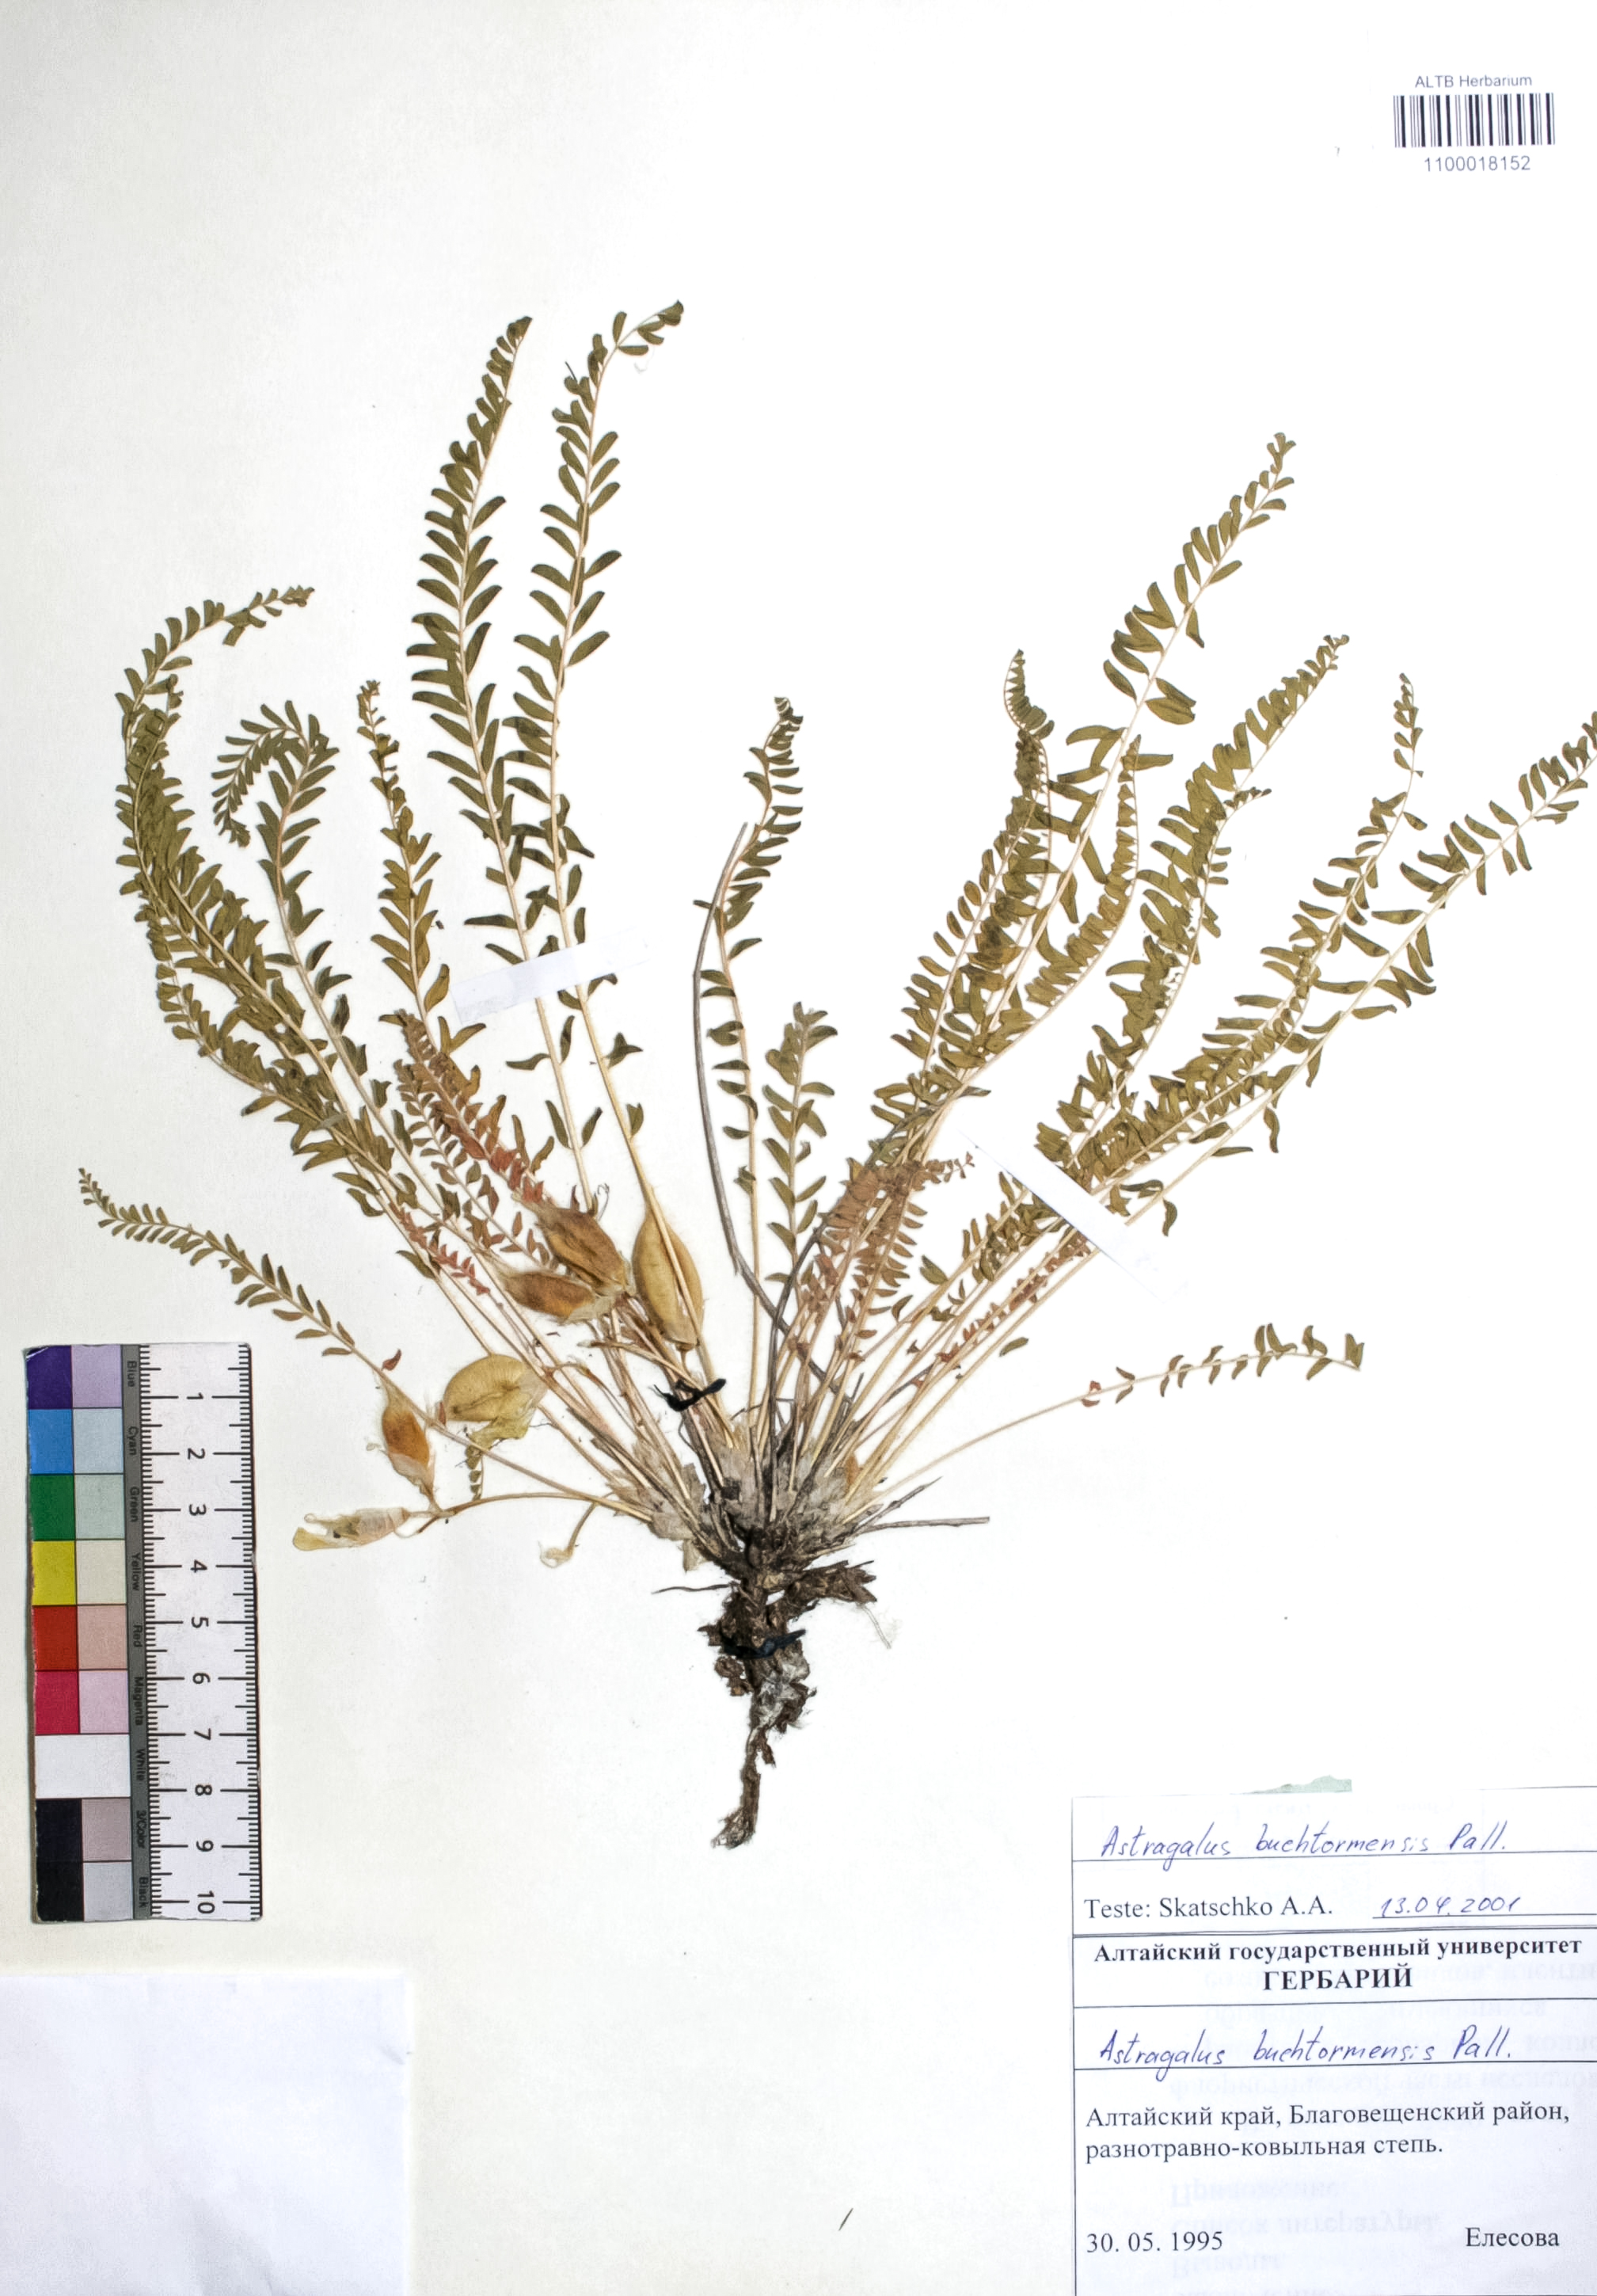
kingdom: Plantae
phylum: Tracheophyta
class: Magnoliopsida
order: Fabales
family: Fabaceae
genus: Astragalus
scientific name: Astragalus buchtormensis
